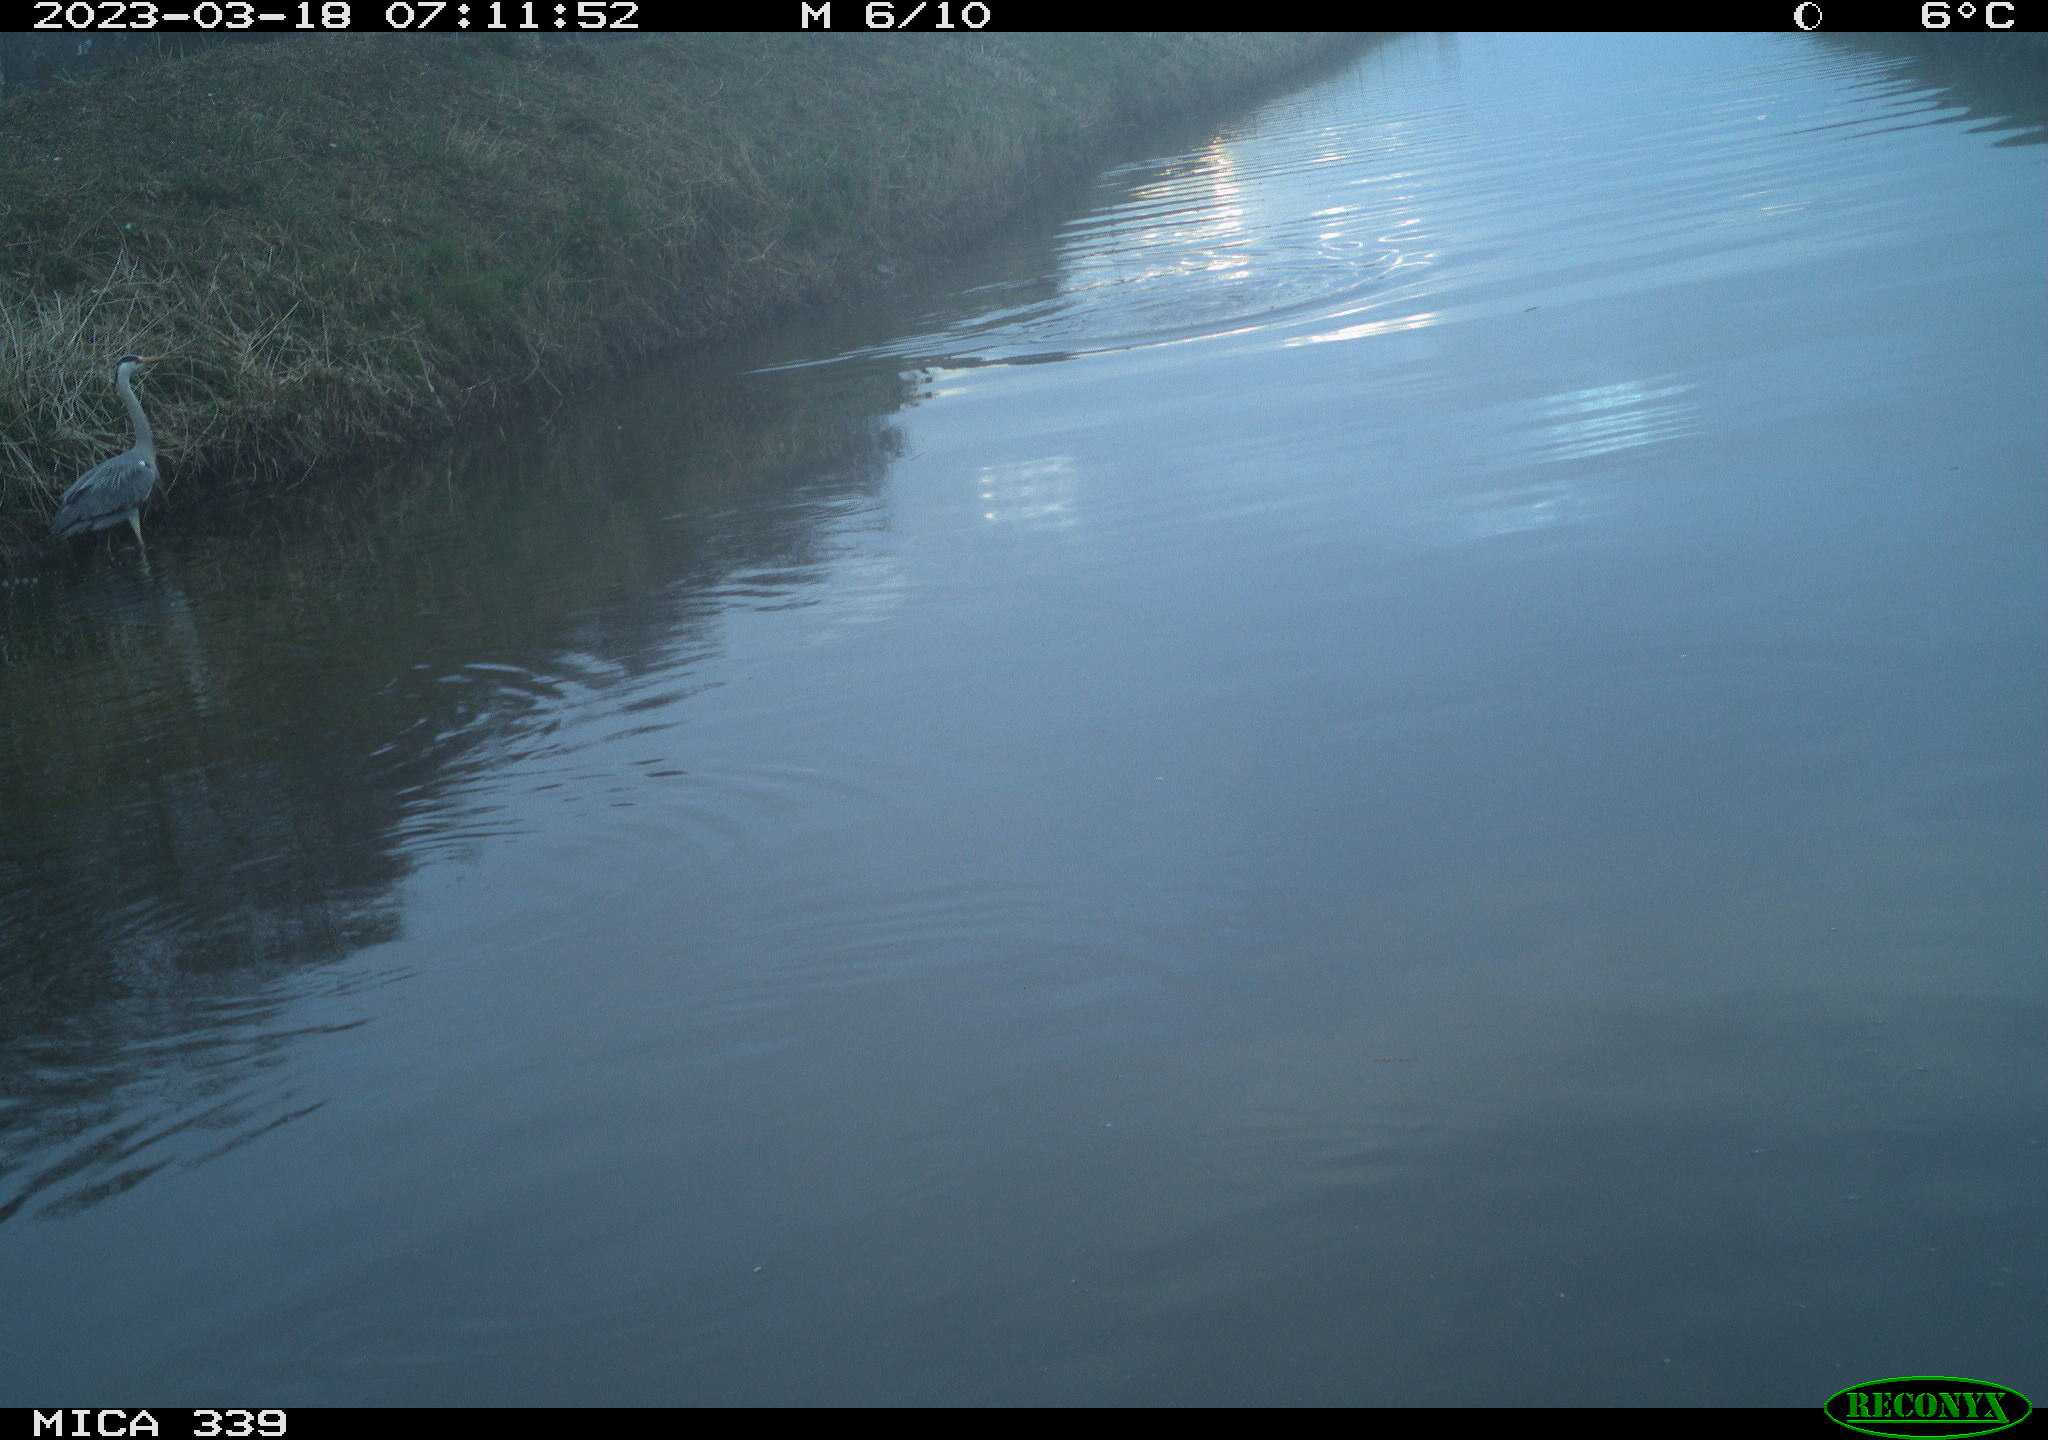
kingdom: Animalia
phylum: Chordata
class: Aves
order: Pelecaniformes
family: Ardeidae
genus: Ardea
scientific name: Ardea
